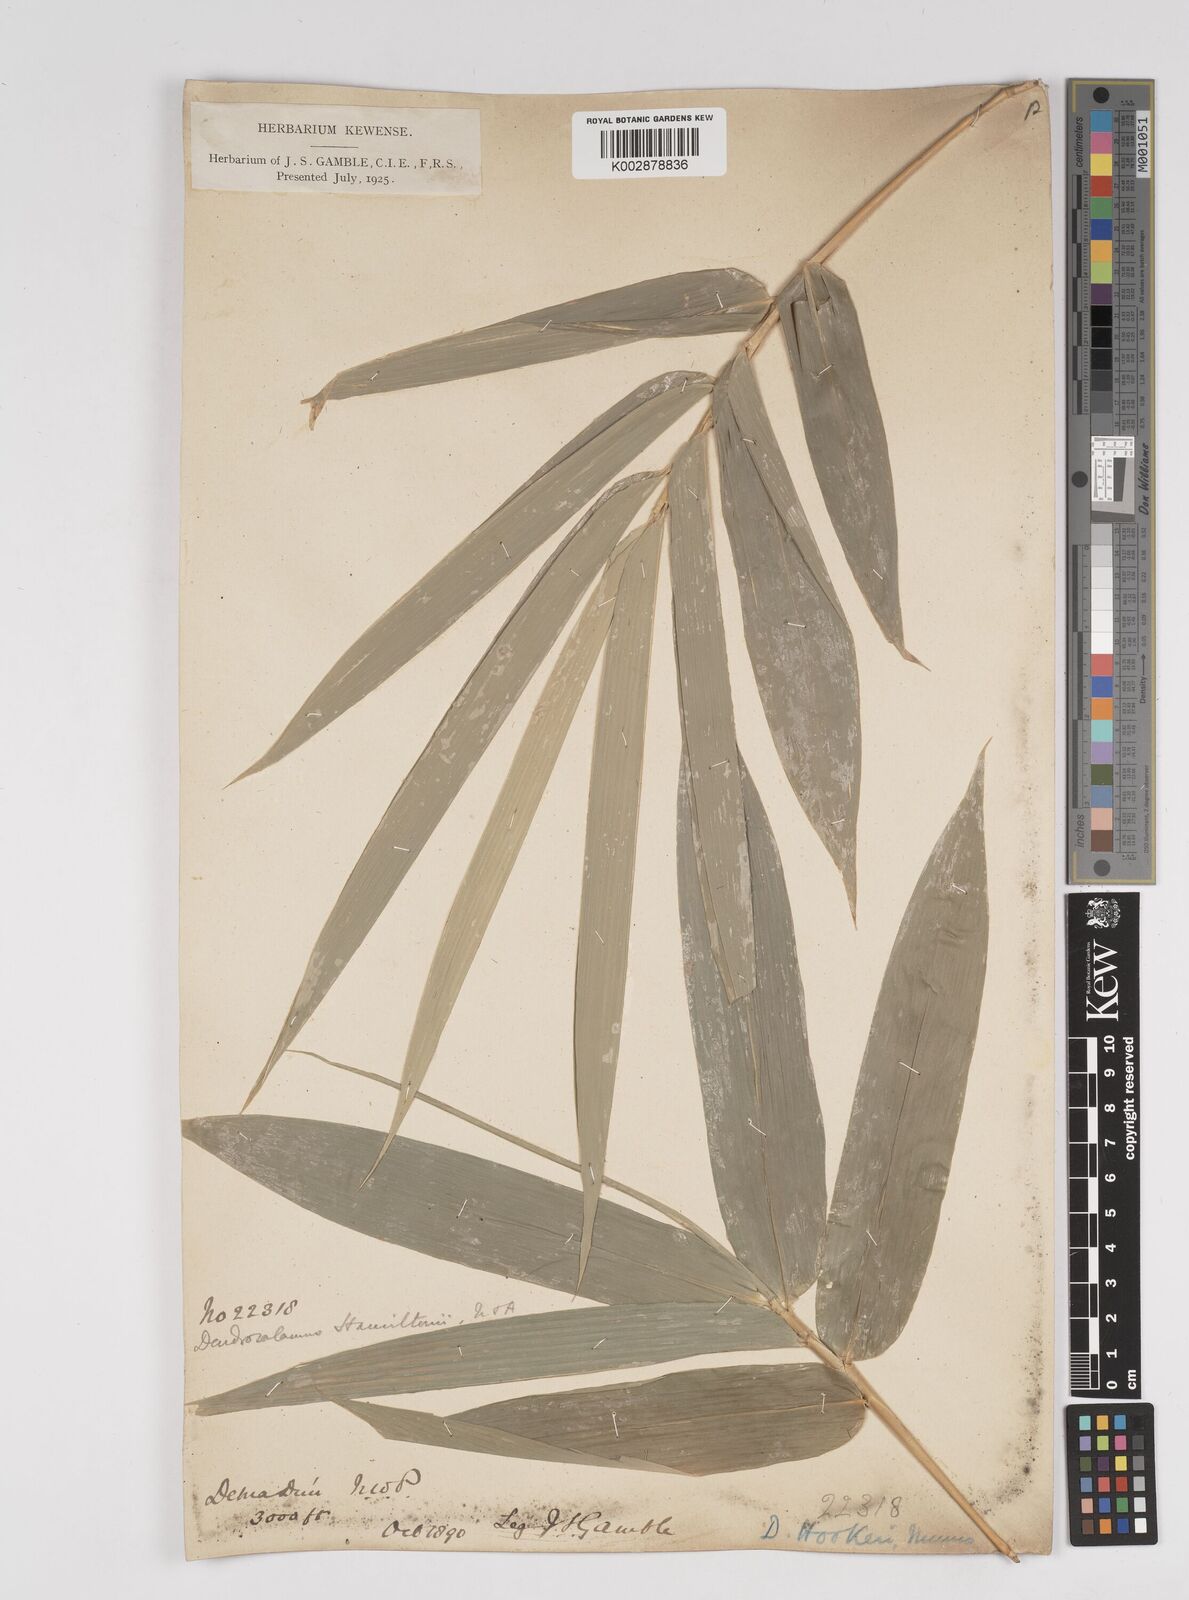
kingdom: Plantae
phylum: Tracheophyta
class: Liliopsida
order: Poales
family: Poaceae
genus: Dendrocalamus
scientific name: Dendrocalamus hookeri
